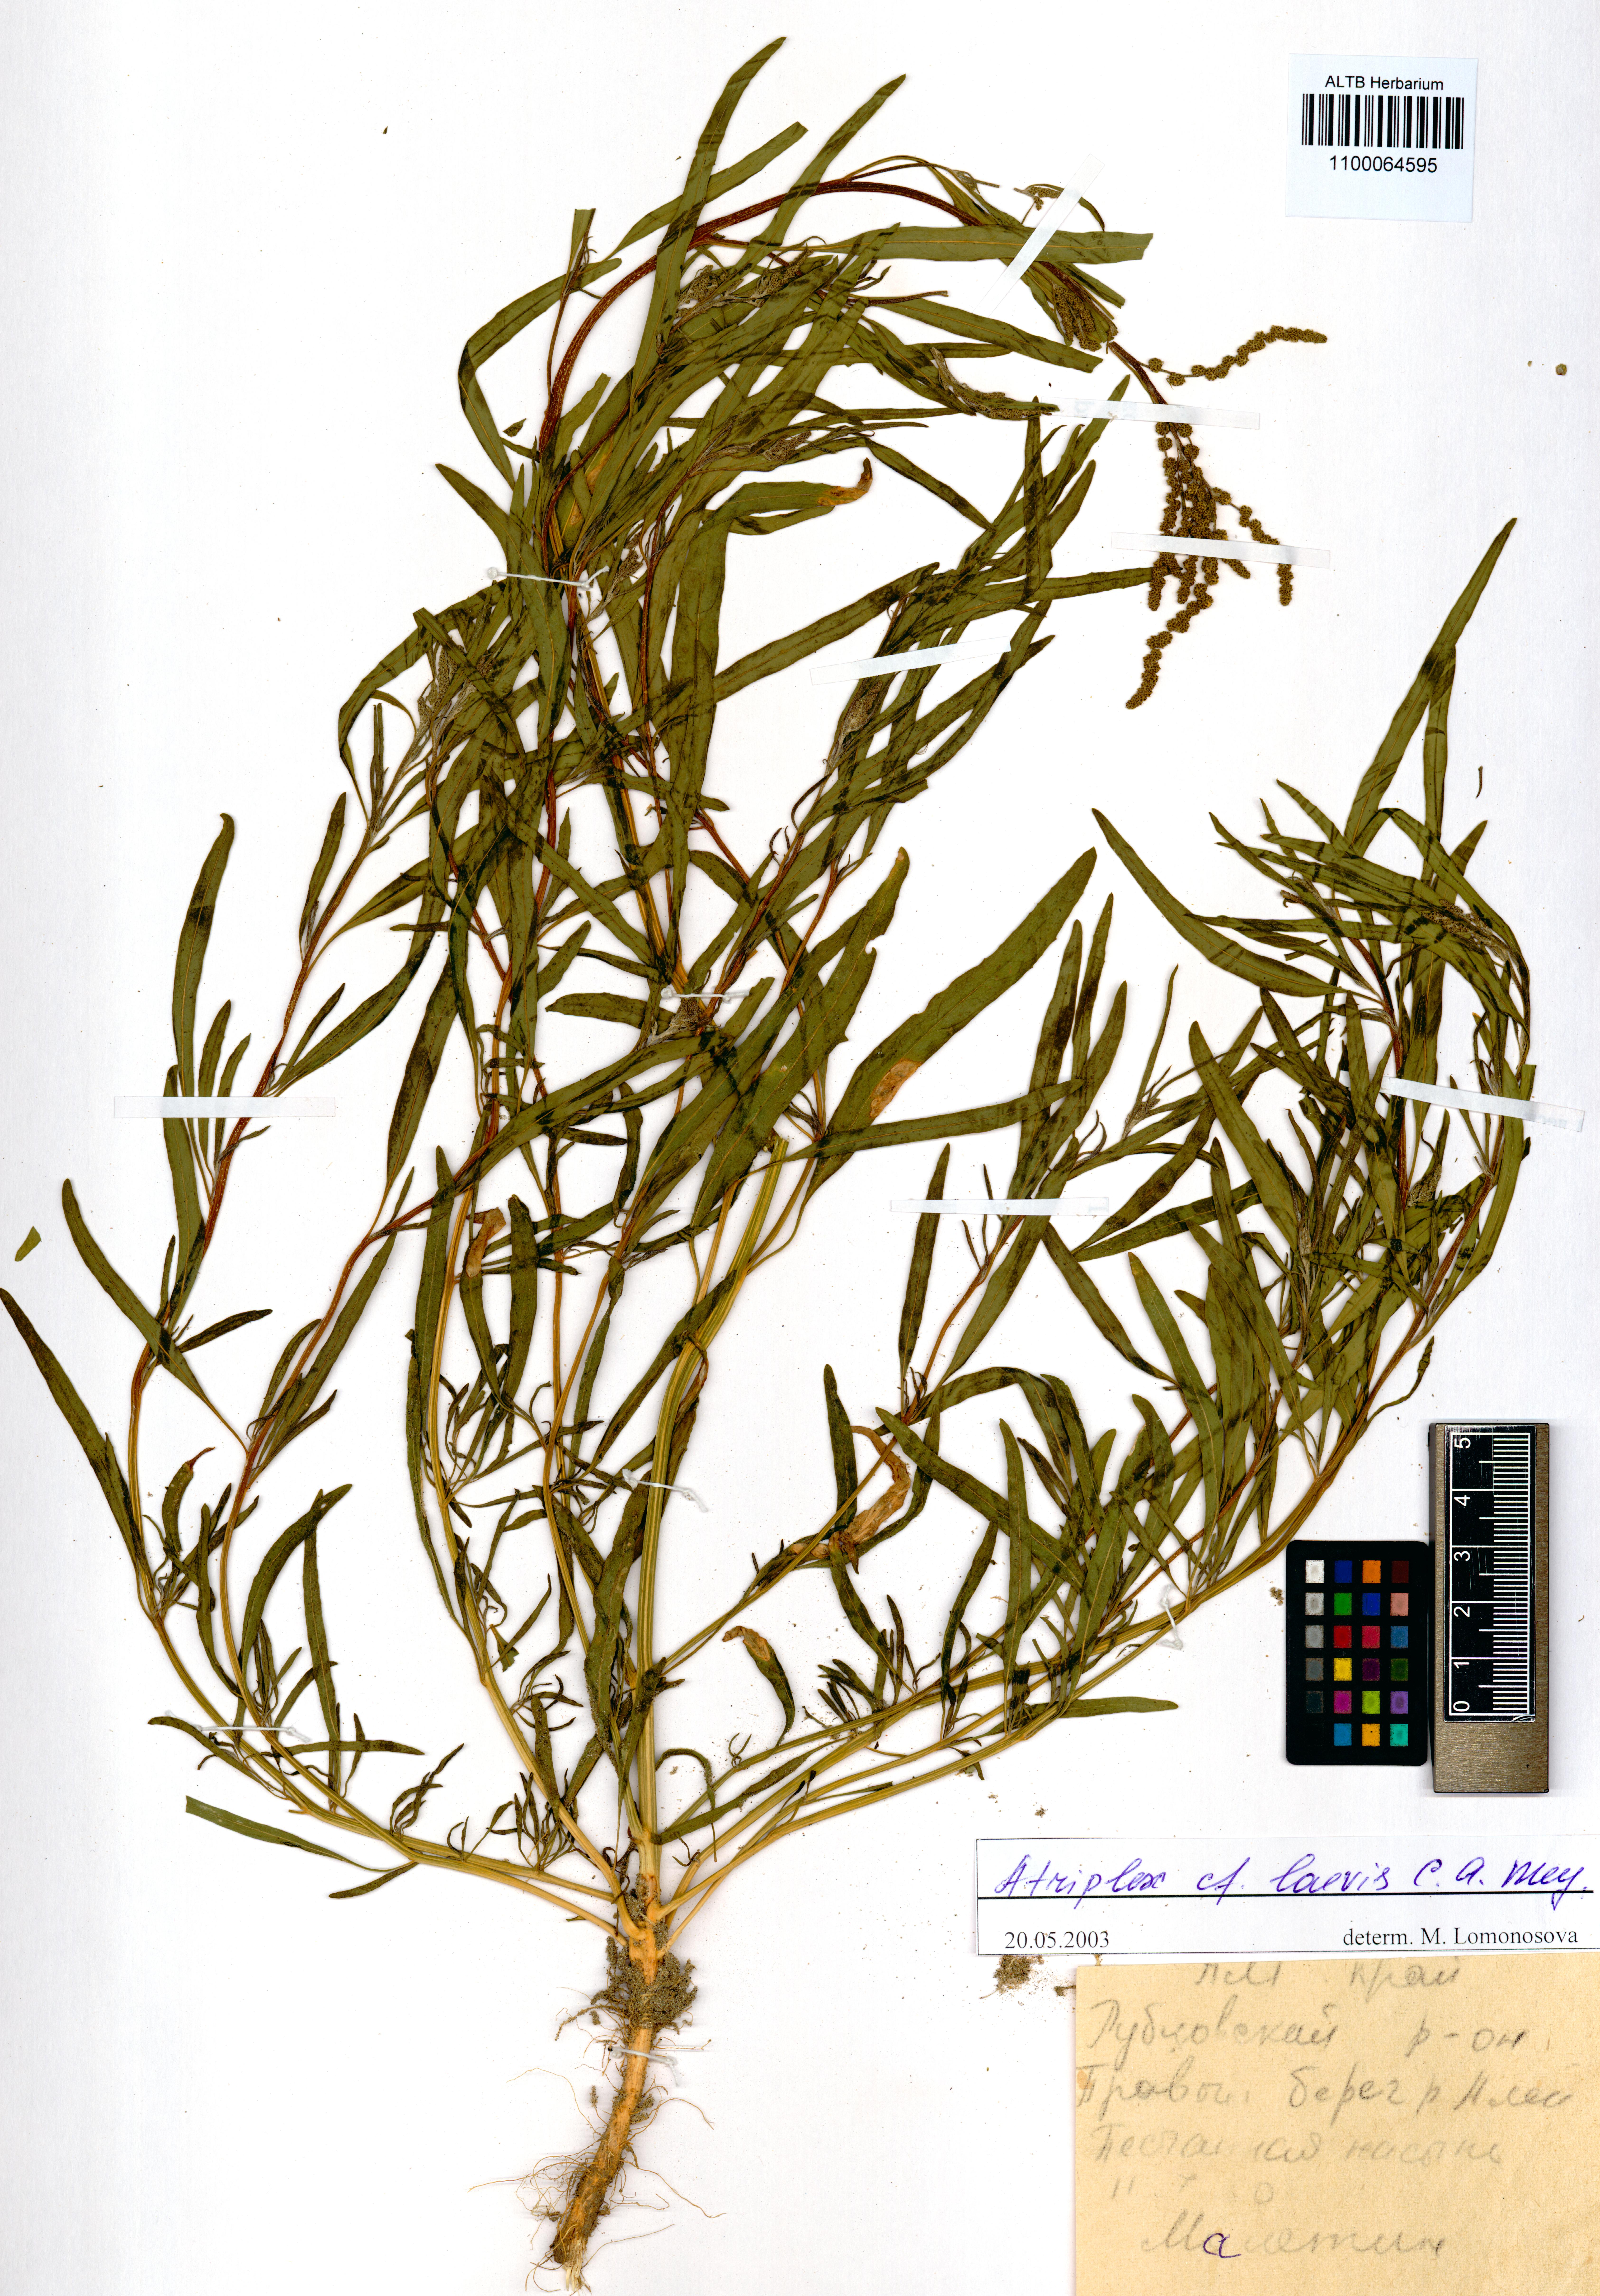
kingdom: Plantae
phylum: Tracheophyta
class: Magnoliopsida
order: Caryophyllales
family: Amaranthaceae
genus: Atriplex
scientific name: Atriplex laevis
